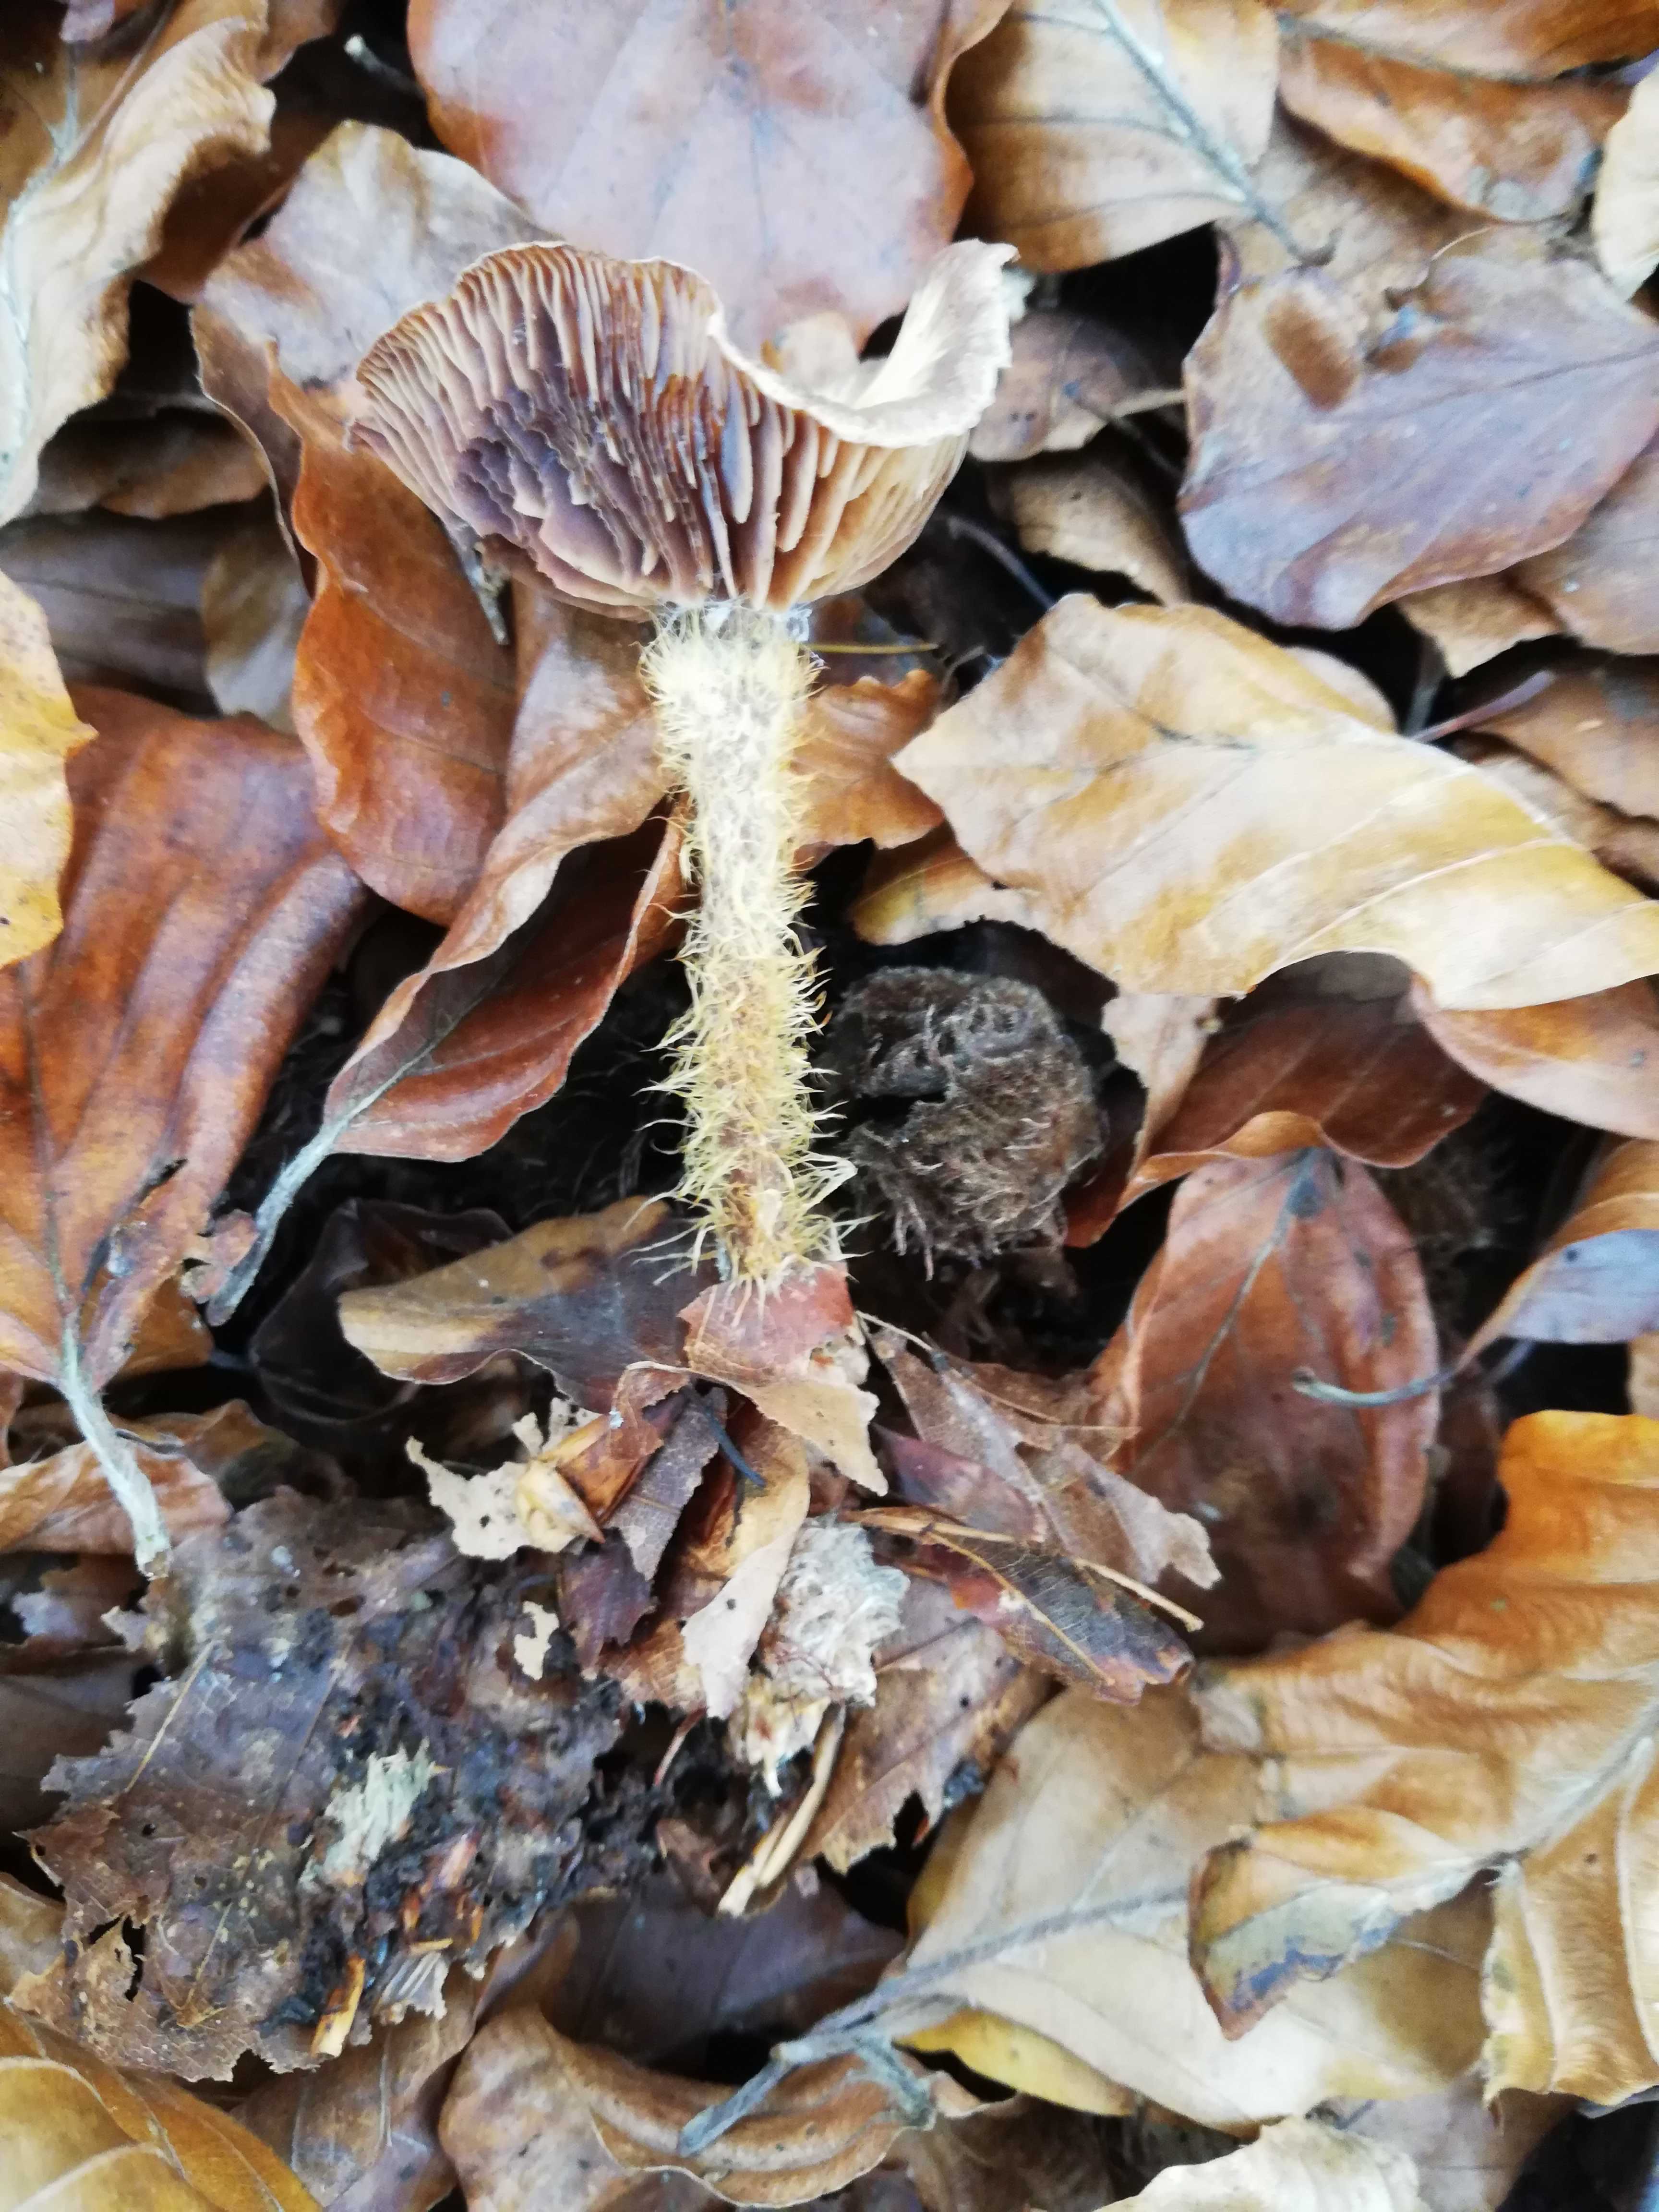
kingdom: Fungi
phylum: Basidiomycota
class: Agaricomycetes
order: Agaricales
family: Omphalotaceae
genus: Gymnopus
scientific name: Gymnopus
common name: fladhat
